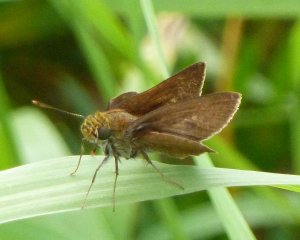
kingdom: Animalia
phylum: Arthropoda
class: Insecta
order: Lepidoptera
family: Hesperiidae
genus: Euphyes
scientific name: Euphyes vestris
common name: Dun Skipper
